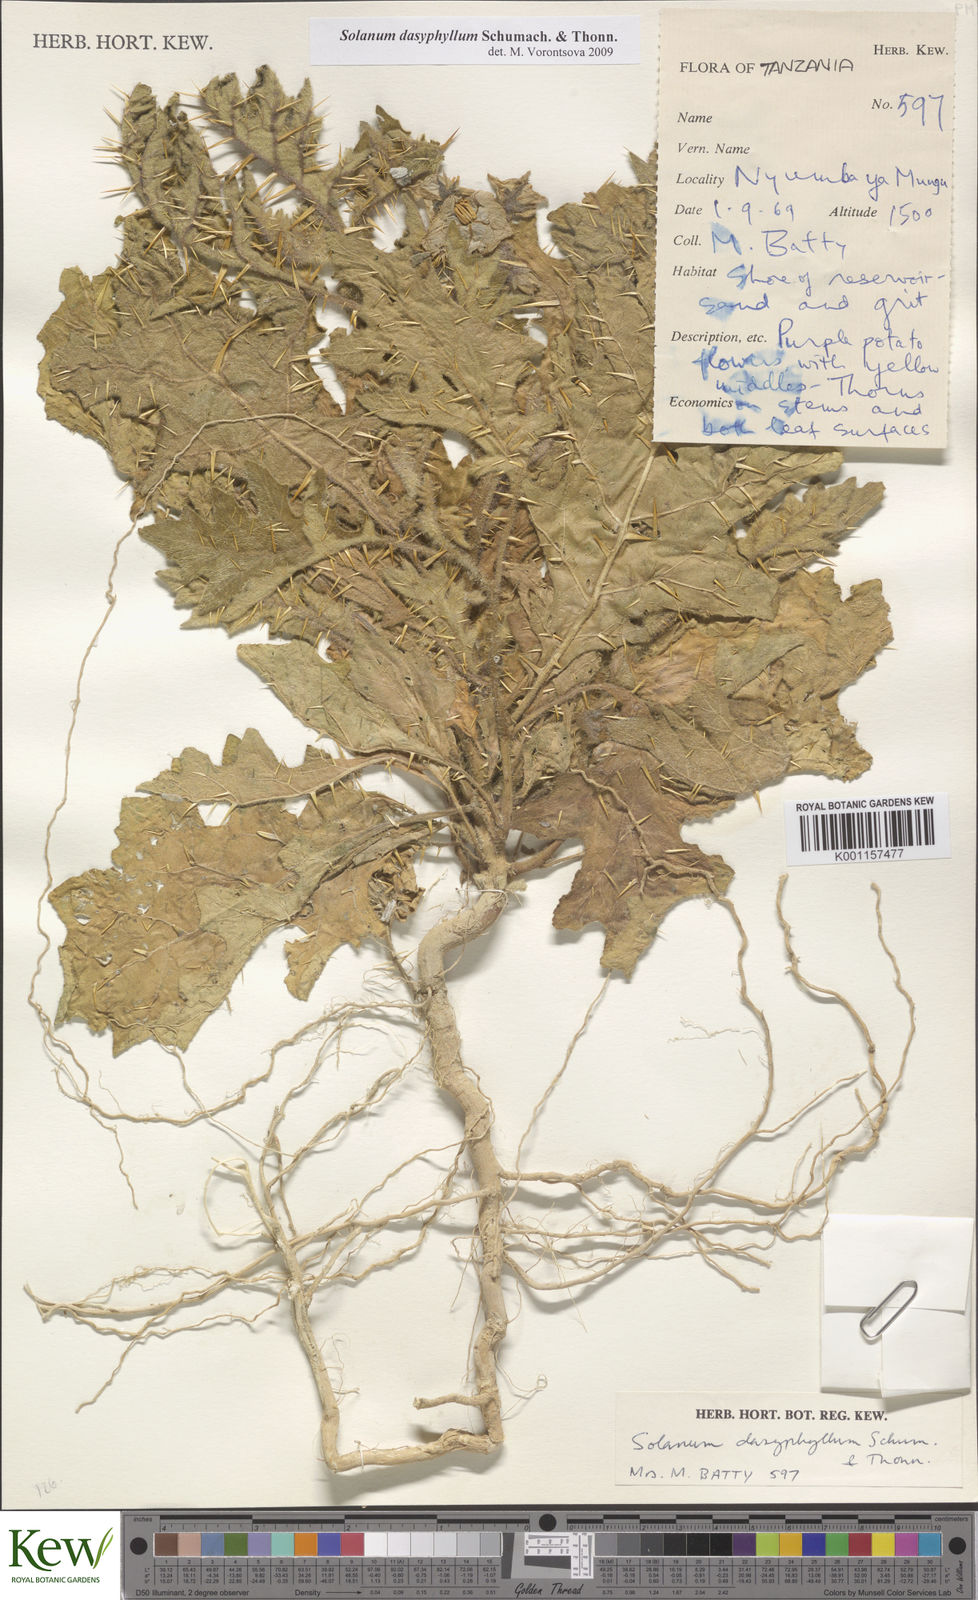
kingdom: Plantae
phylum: Tracheophyta
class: Magnoliopsida
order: Solanales
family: Solanaceae
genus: Solanum
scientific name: Solanum dasyphyllum
